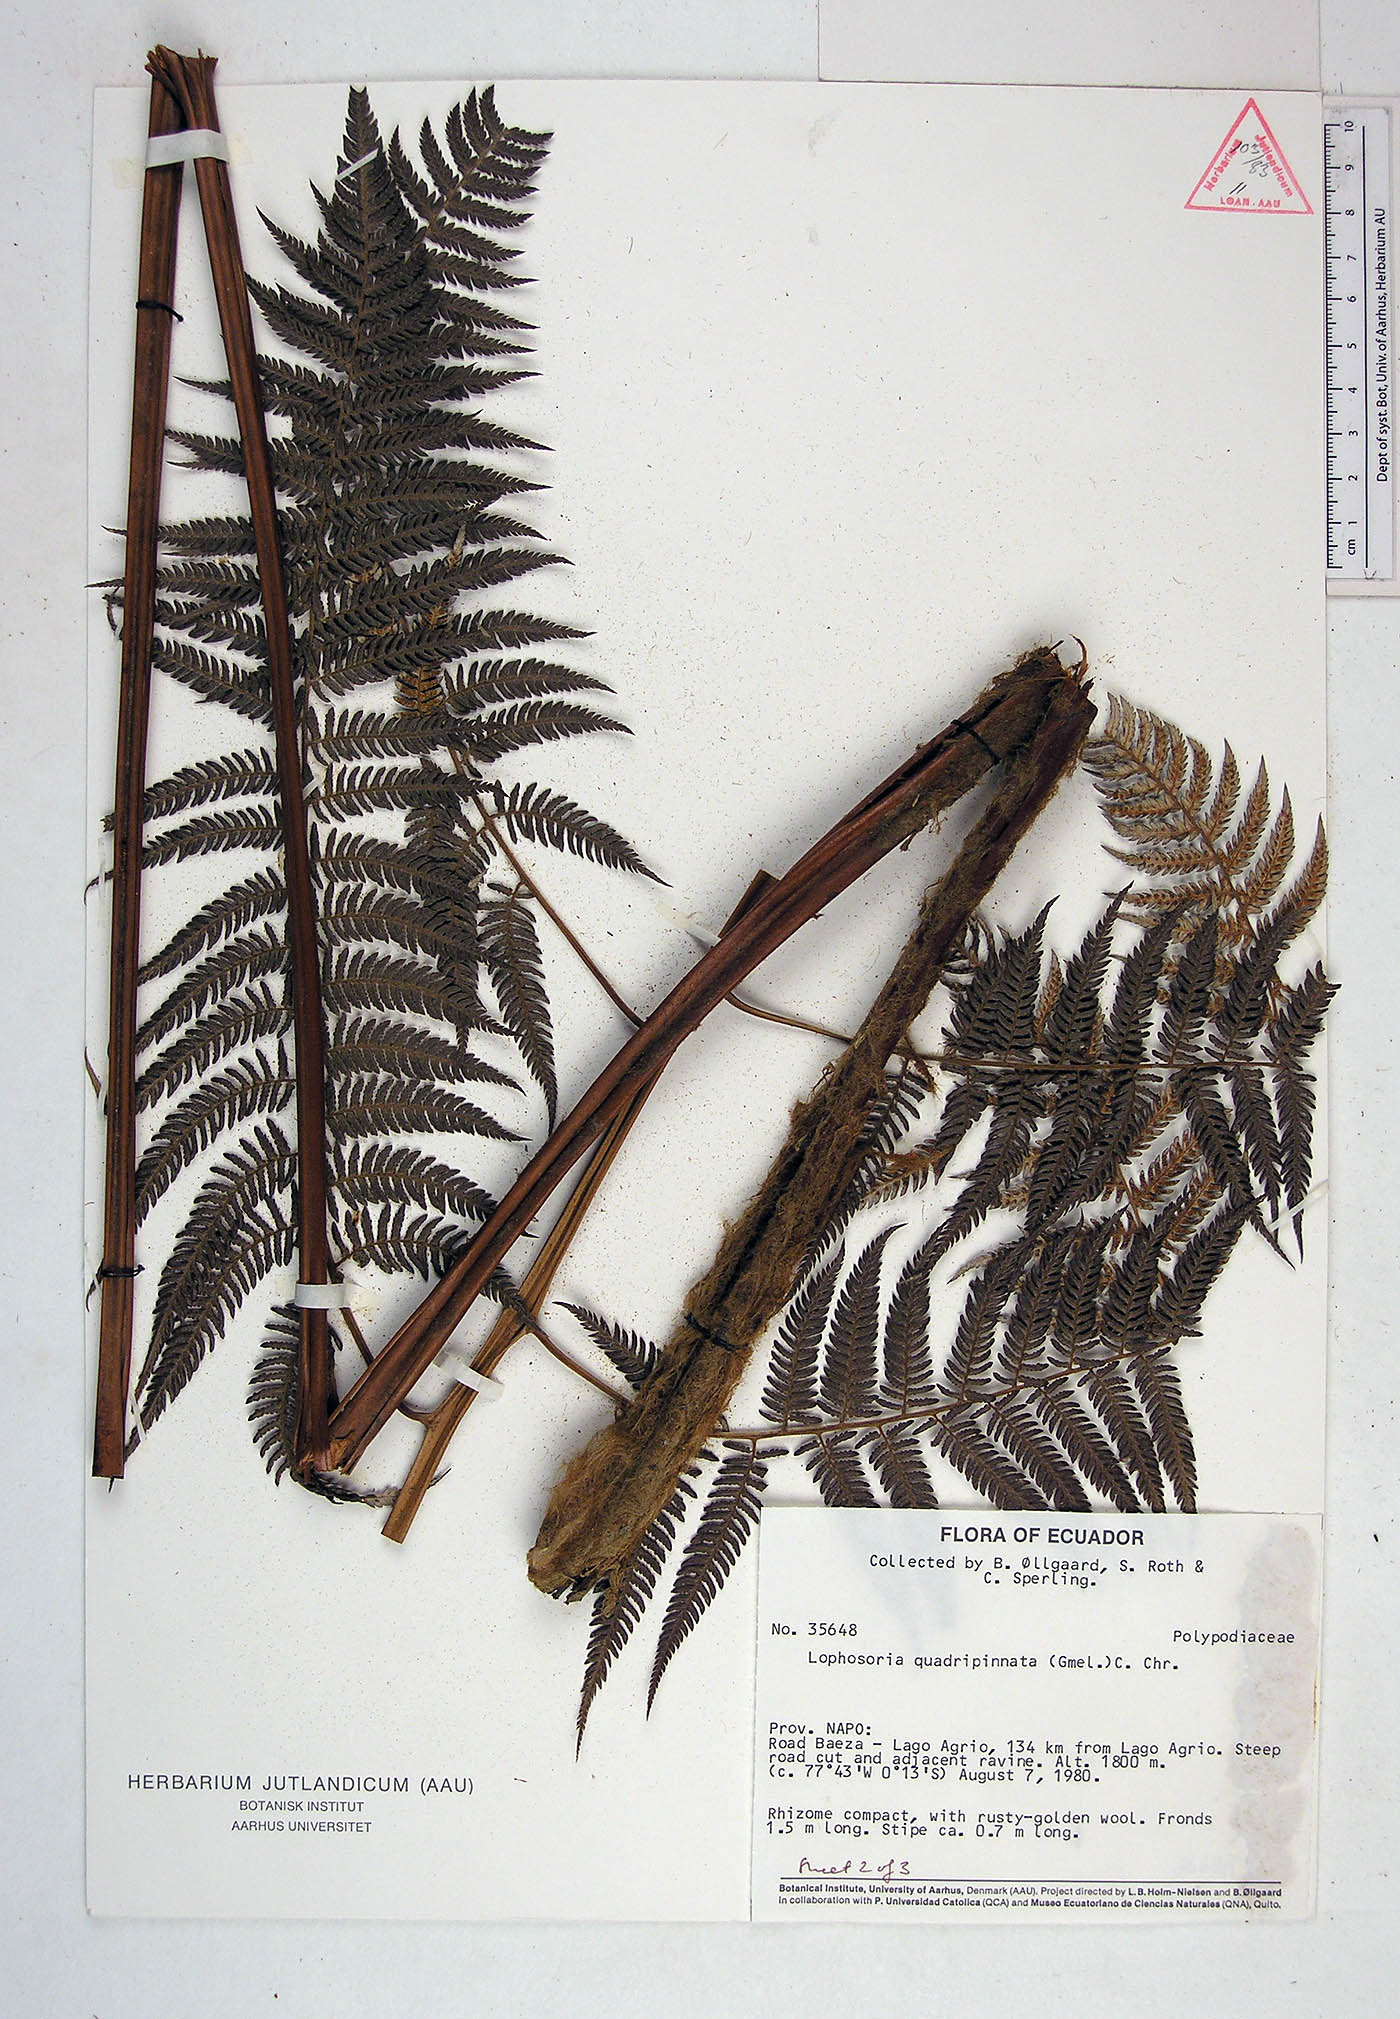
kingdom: Plantae
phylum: Tracheophyta
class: Polypodiopsida
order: Cyatheales
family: Dicksoniaceae
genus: Lophosoria
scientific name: Lophosoria quadripinnata
